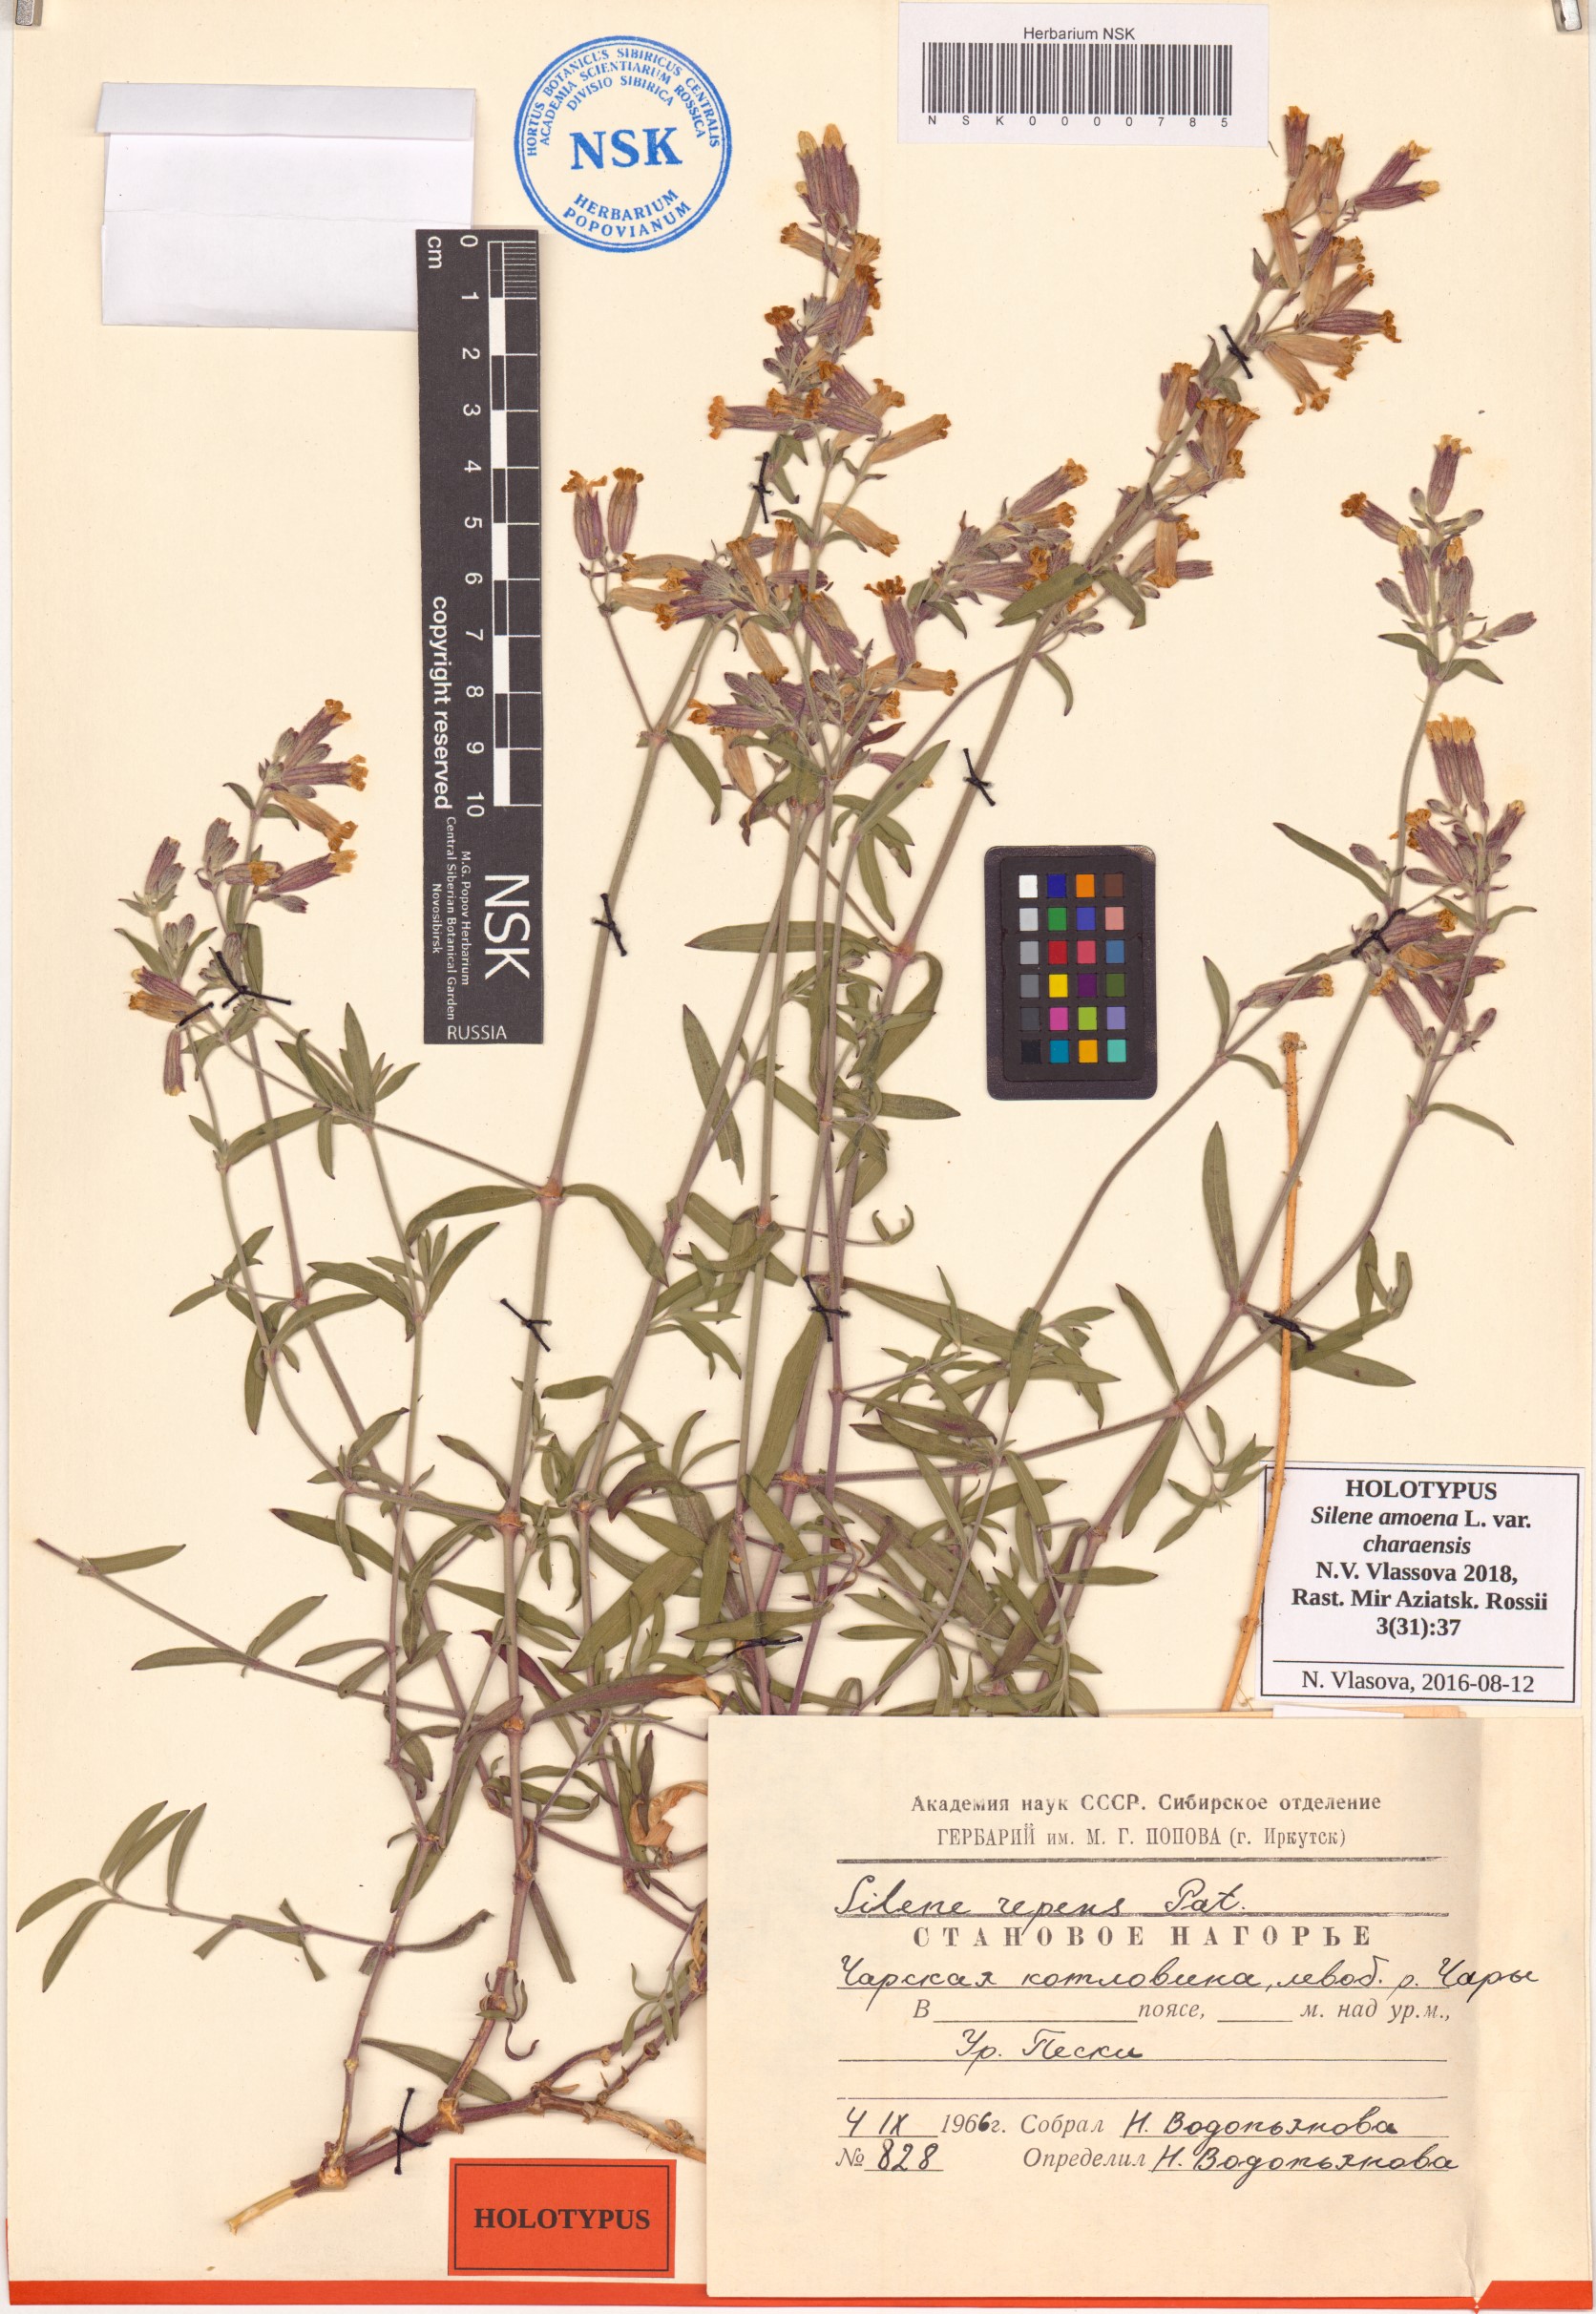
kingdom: Plantae
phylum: Tracheophyta
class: Magnoliopsida
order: Caryophyllales
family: Caryophyllaceae
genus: Silene
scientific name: Silene amoena
